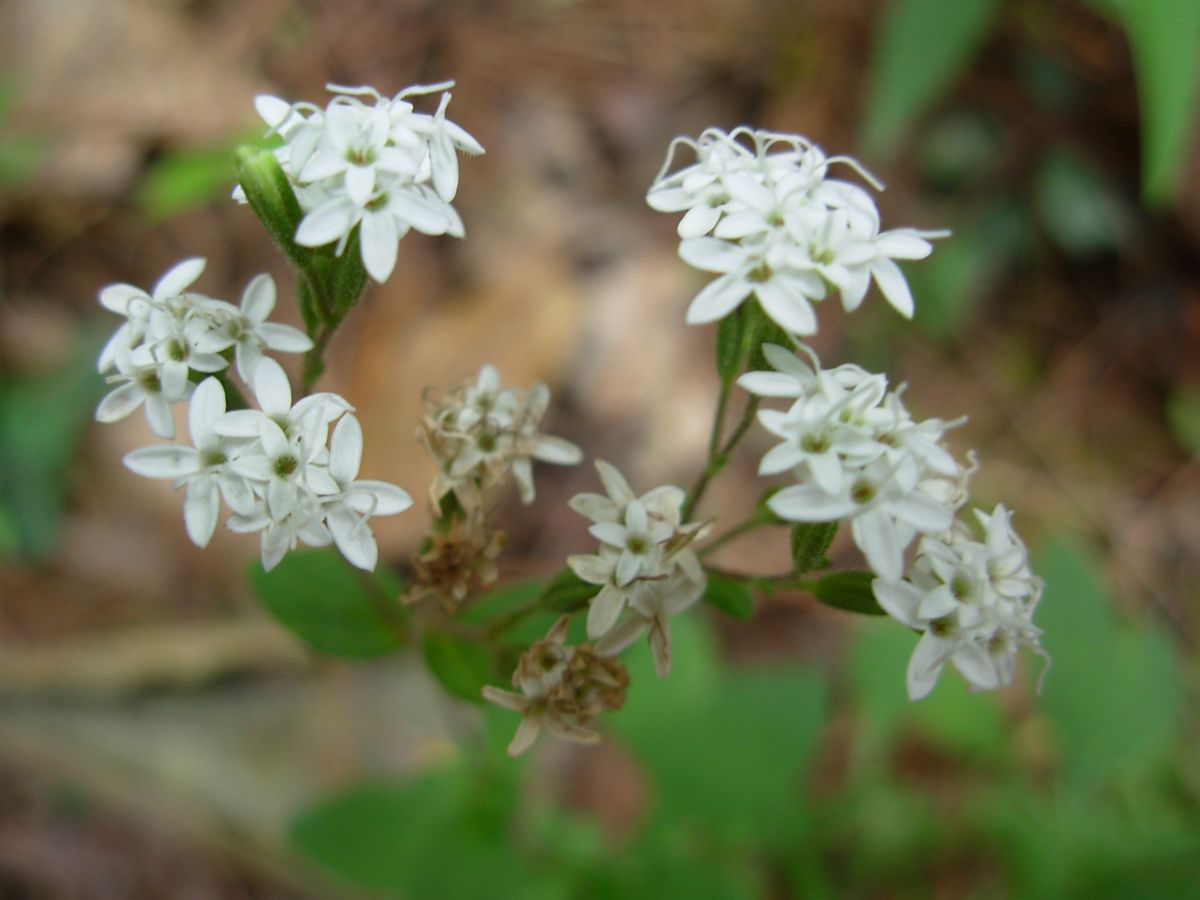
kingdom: Plantae
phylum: Tracheophyta
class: Magnoliopsida
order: Asterales
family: Asteraceae
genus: Stevia
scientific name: Stevia ovata
